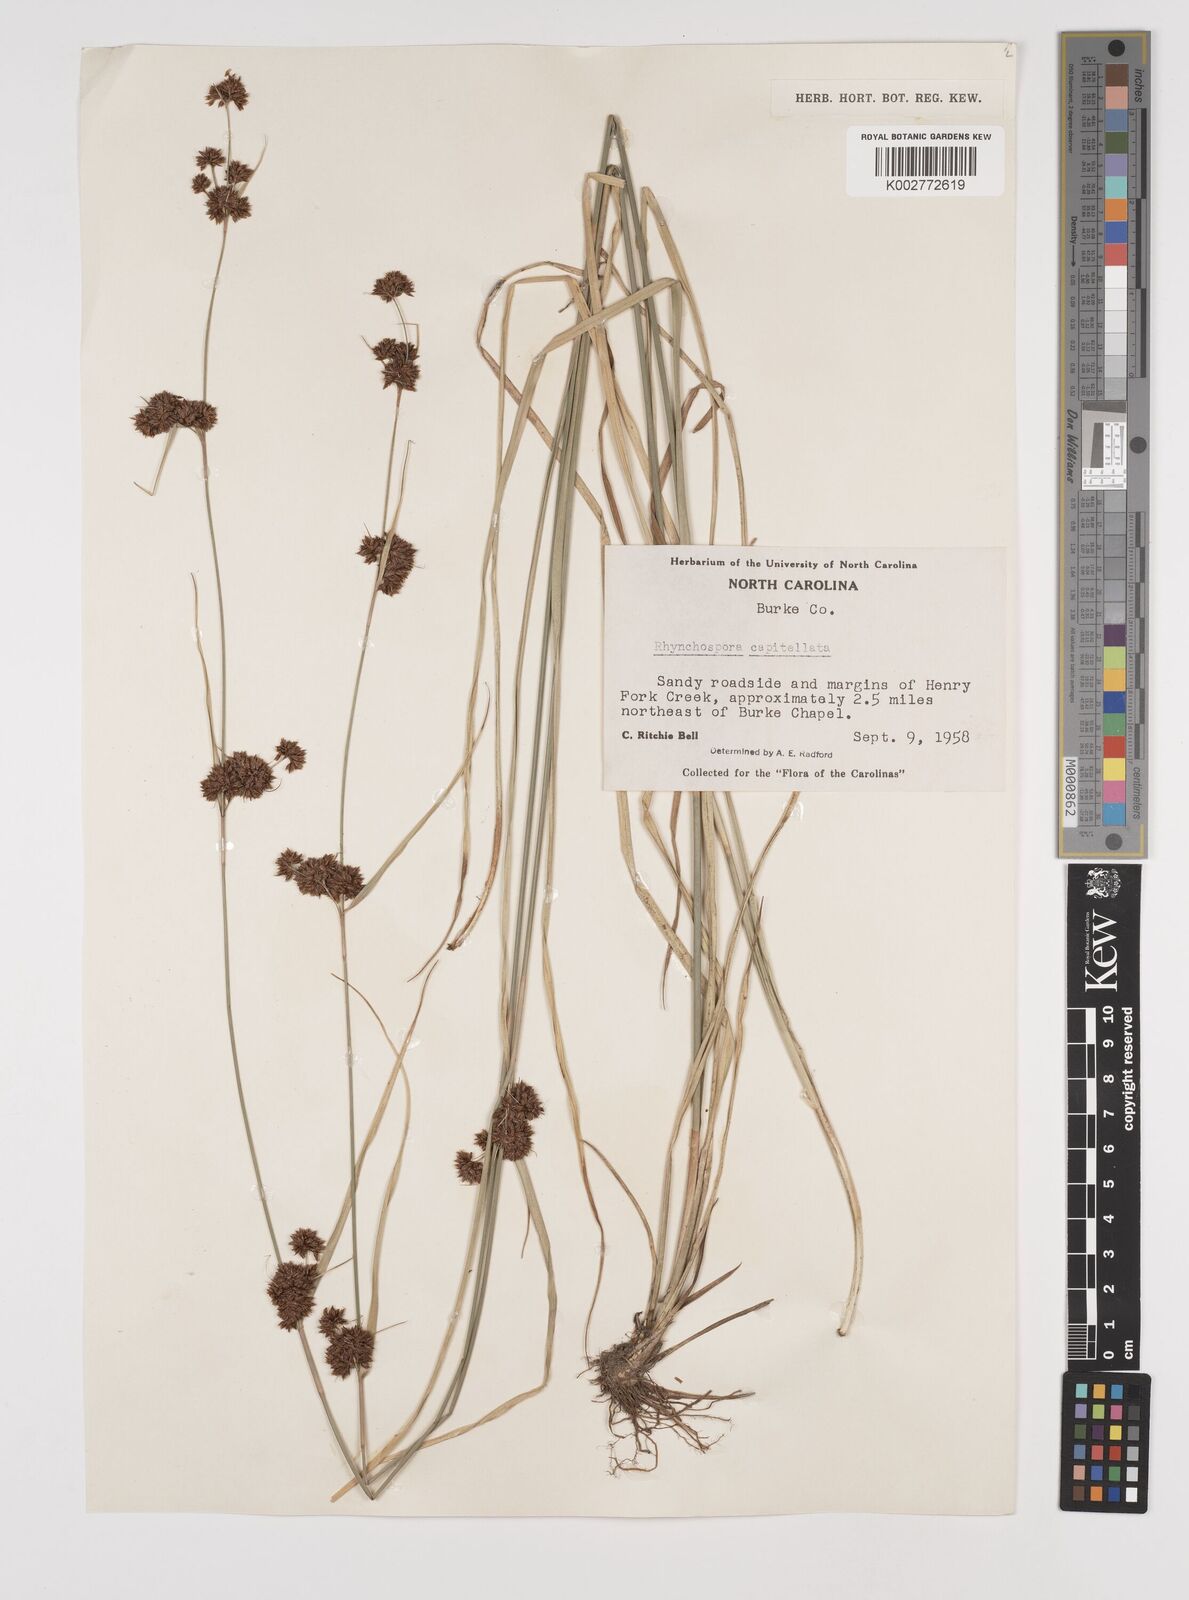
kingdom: Plantae
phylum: Tracheophyta
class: Liliopsida
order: Poales
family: Cyperaceae
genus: Rhynchospora
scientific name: Rhynchospora capitellata
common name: Brownish beaksedge
